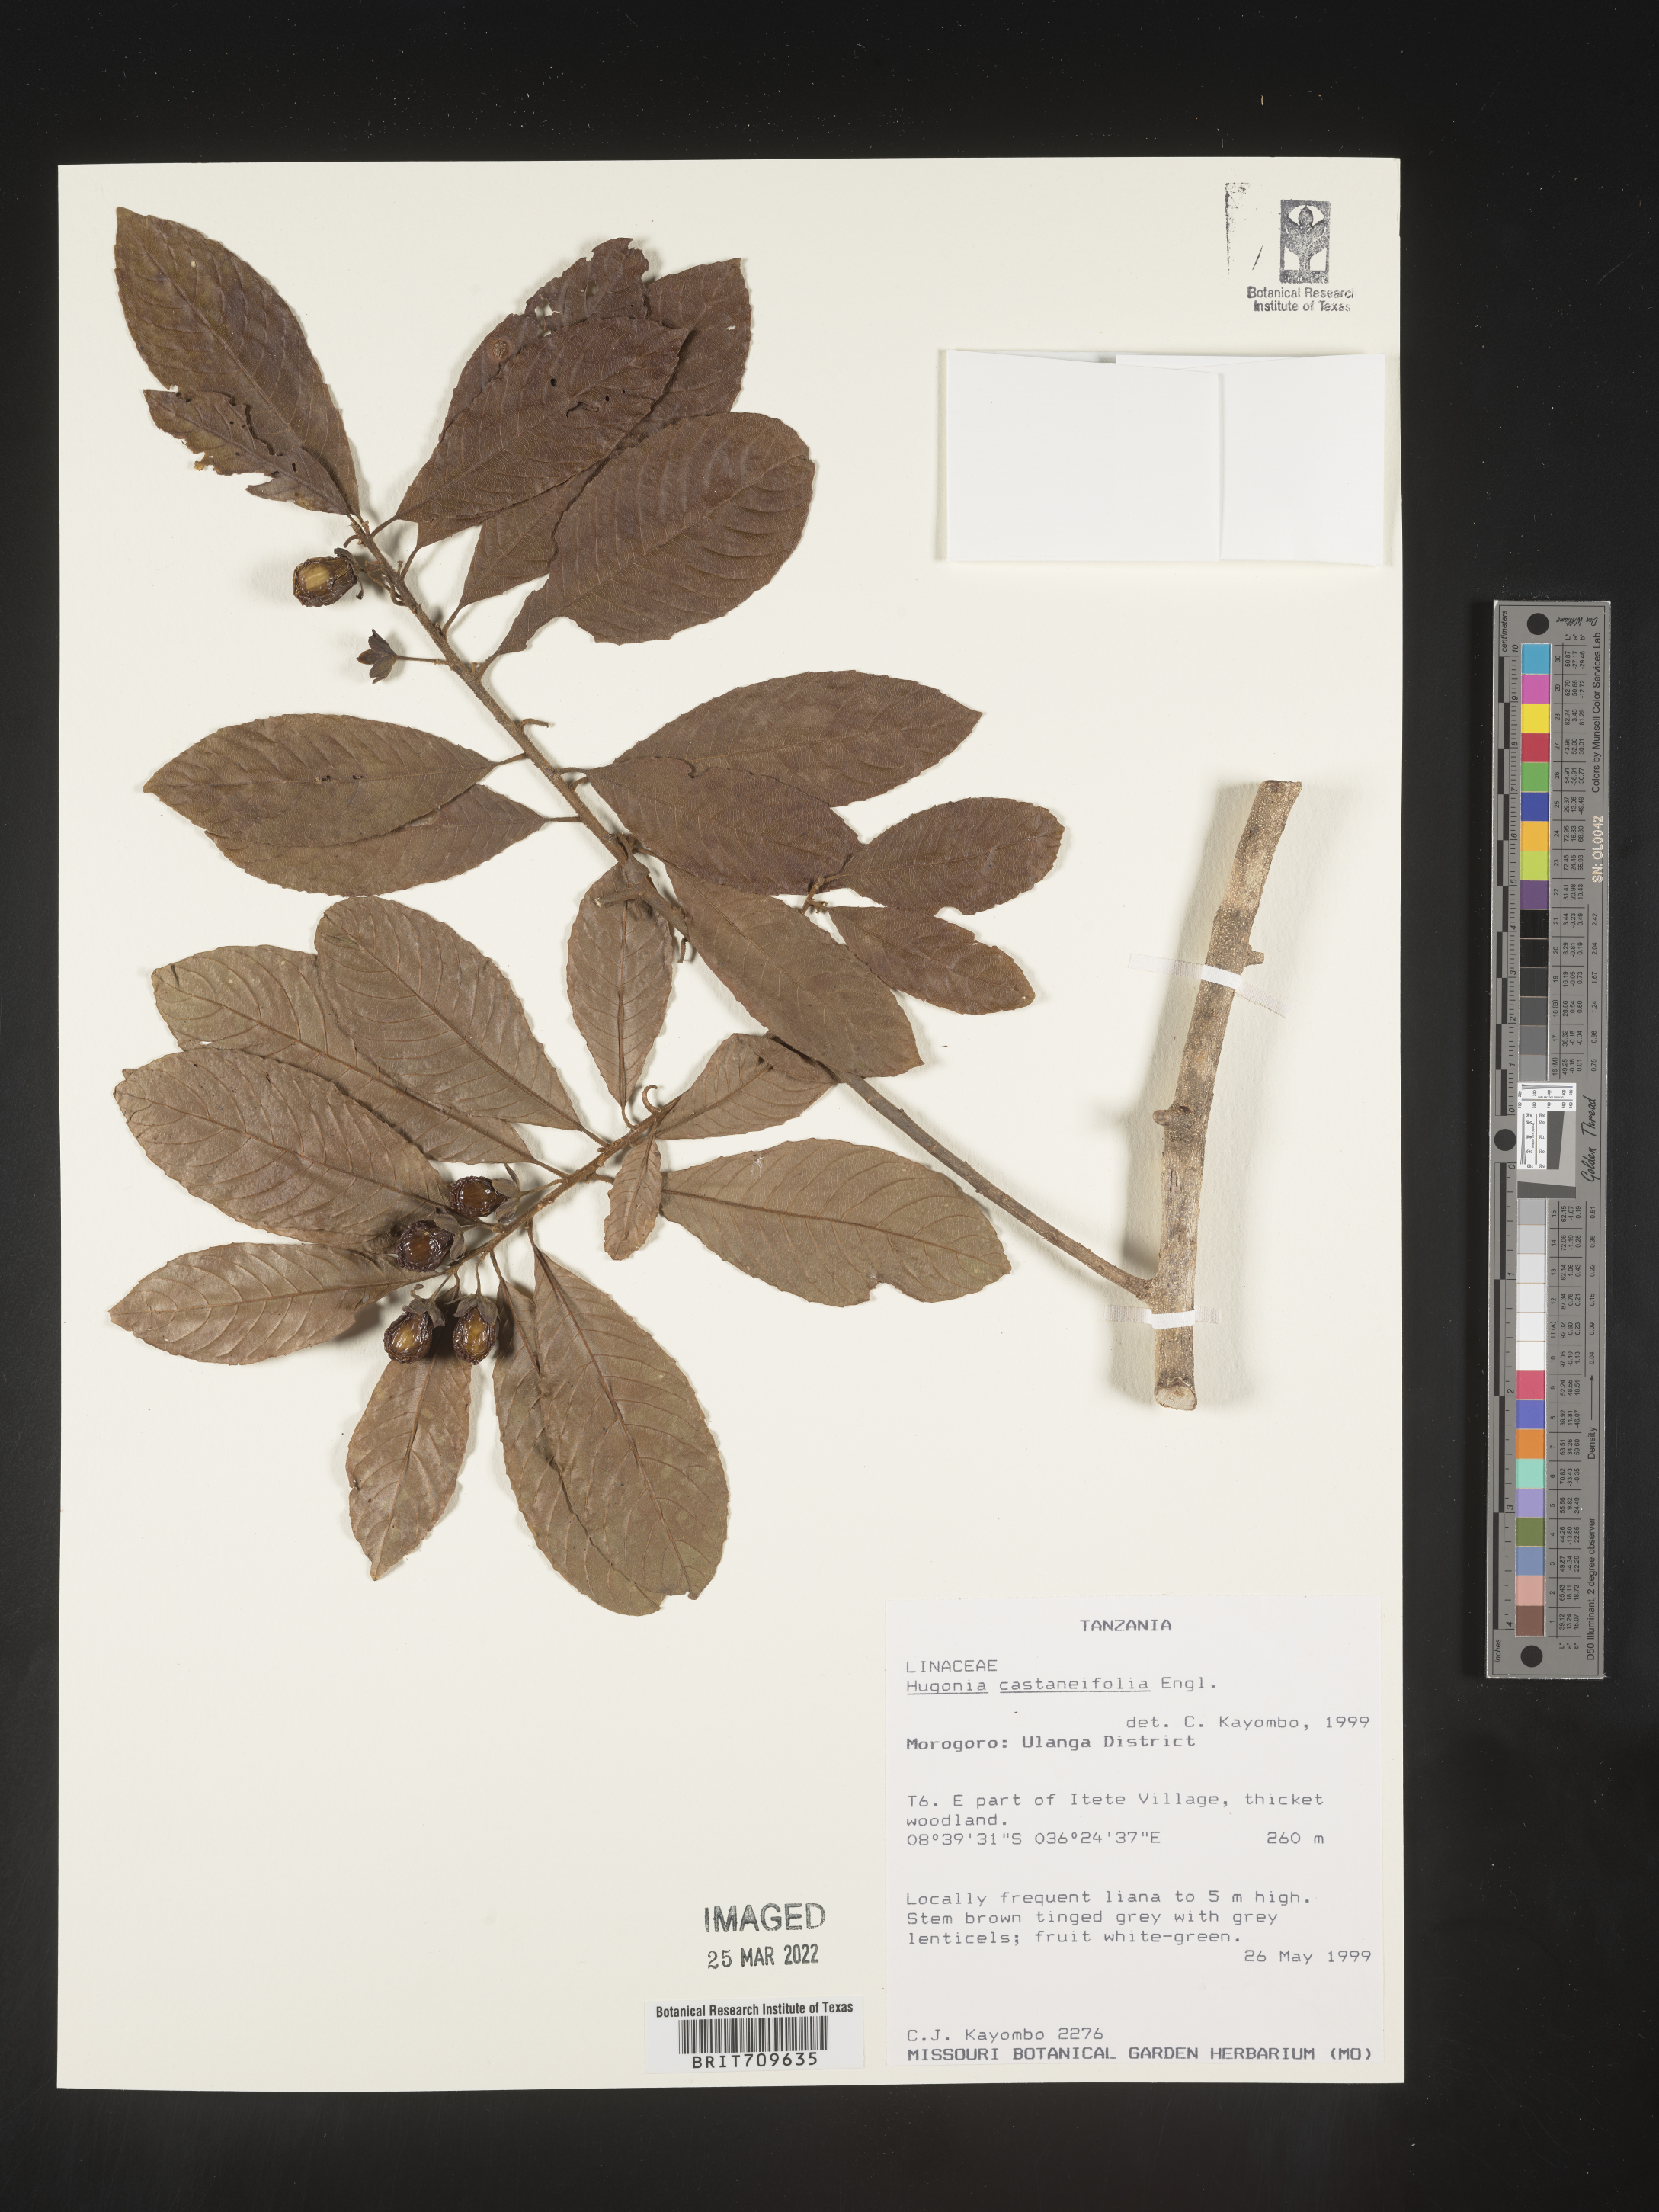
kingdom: Plantae
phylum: Tracheophyta
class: Magnoliopsida
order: Malpighiales
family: Linaceae
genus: Hugonia
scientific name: Hugonia
